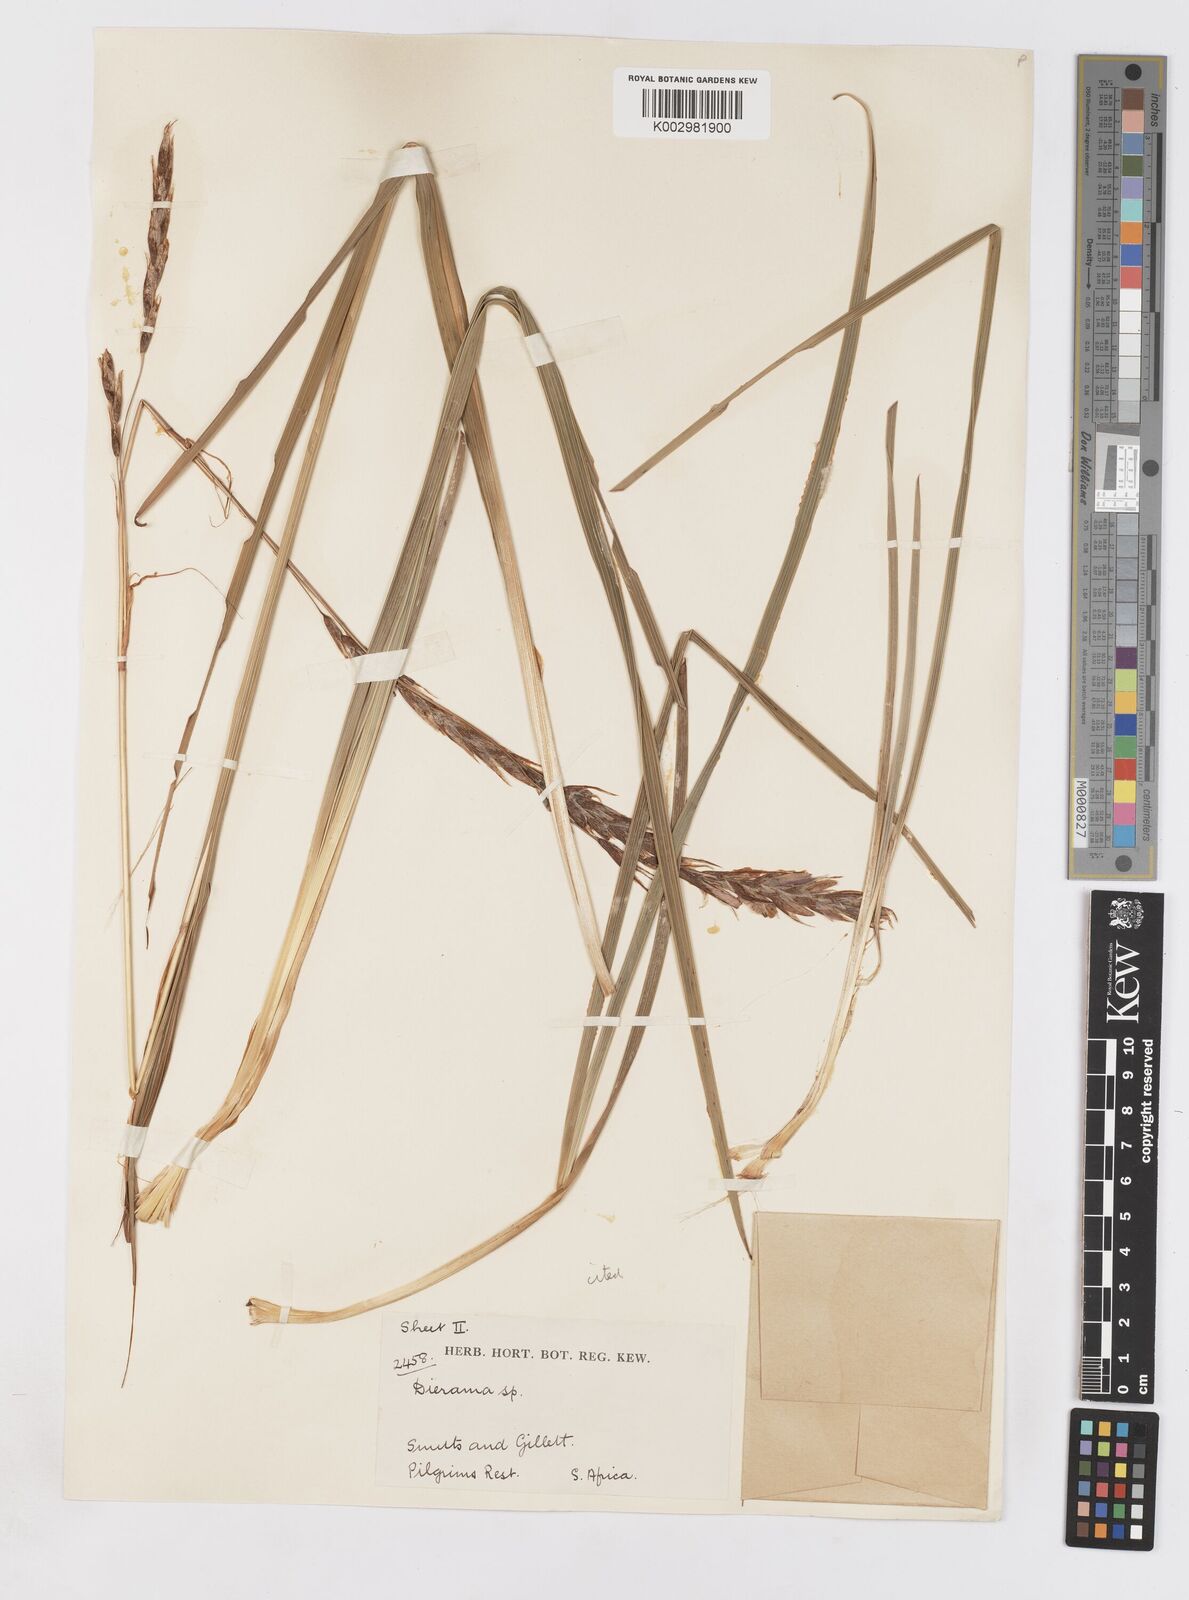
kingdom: Plantae
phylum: Tracheophyta
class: Liliopsida
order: Asparagales
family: Iridaceae
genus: Dierama
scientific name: Dierama pictum
